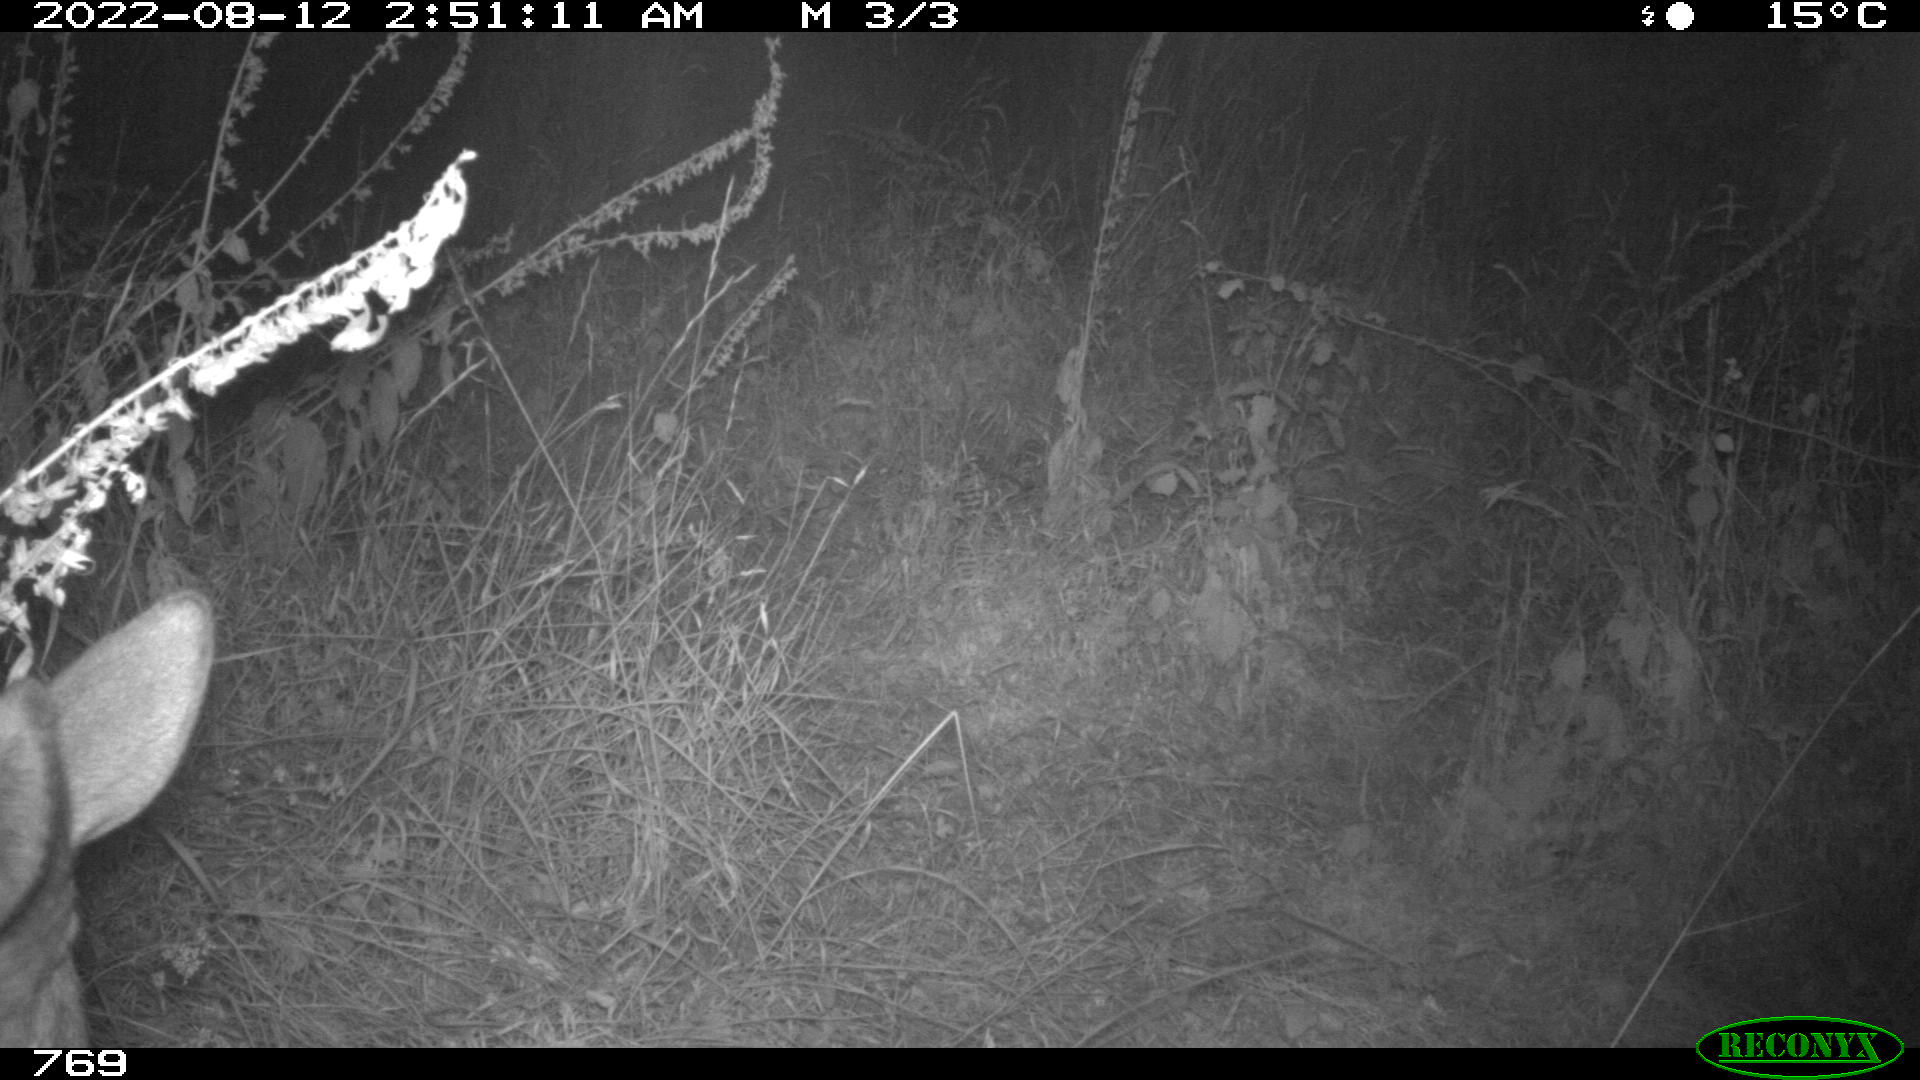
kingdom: Animalia
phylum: Chordata
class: Mammalia
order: Artiodactyla
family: Cervidae
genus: Capreolus
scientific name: Capreolus capreolus
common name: Western roe deer
